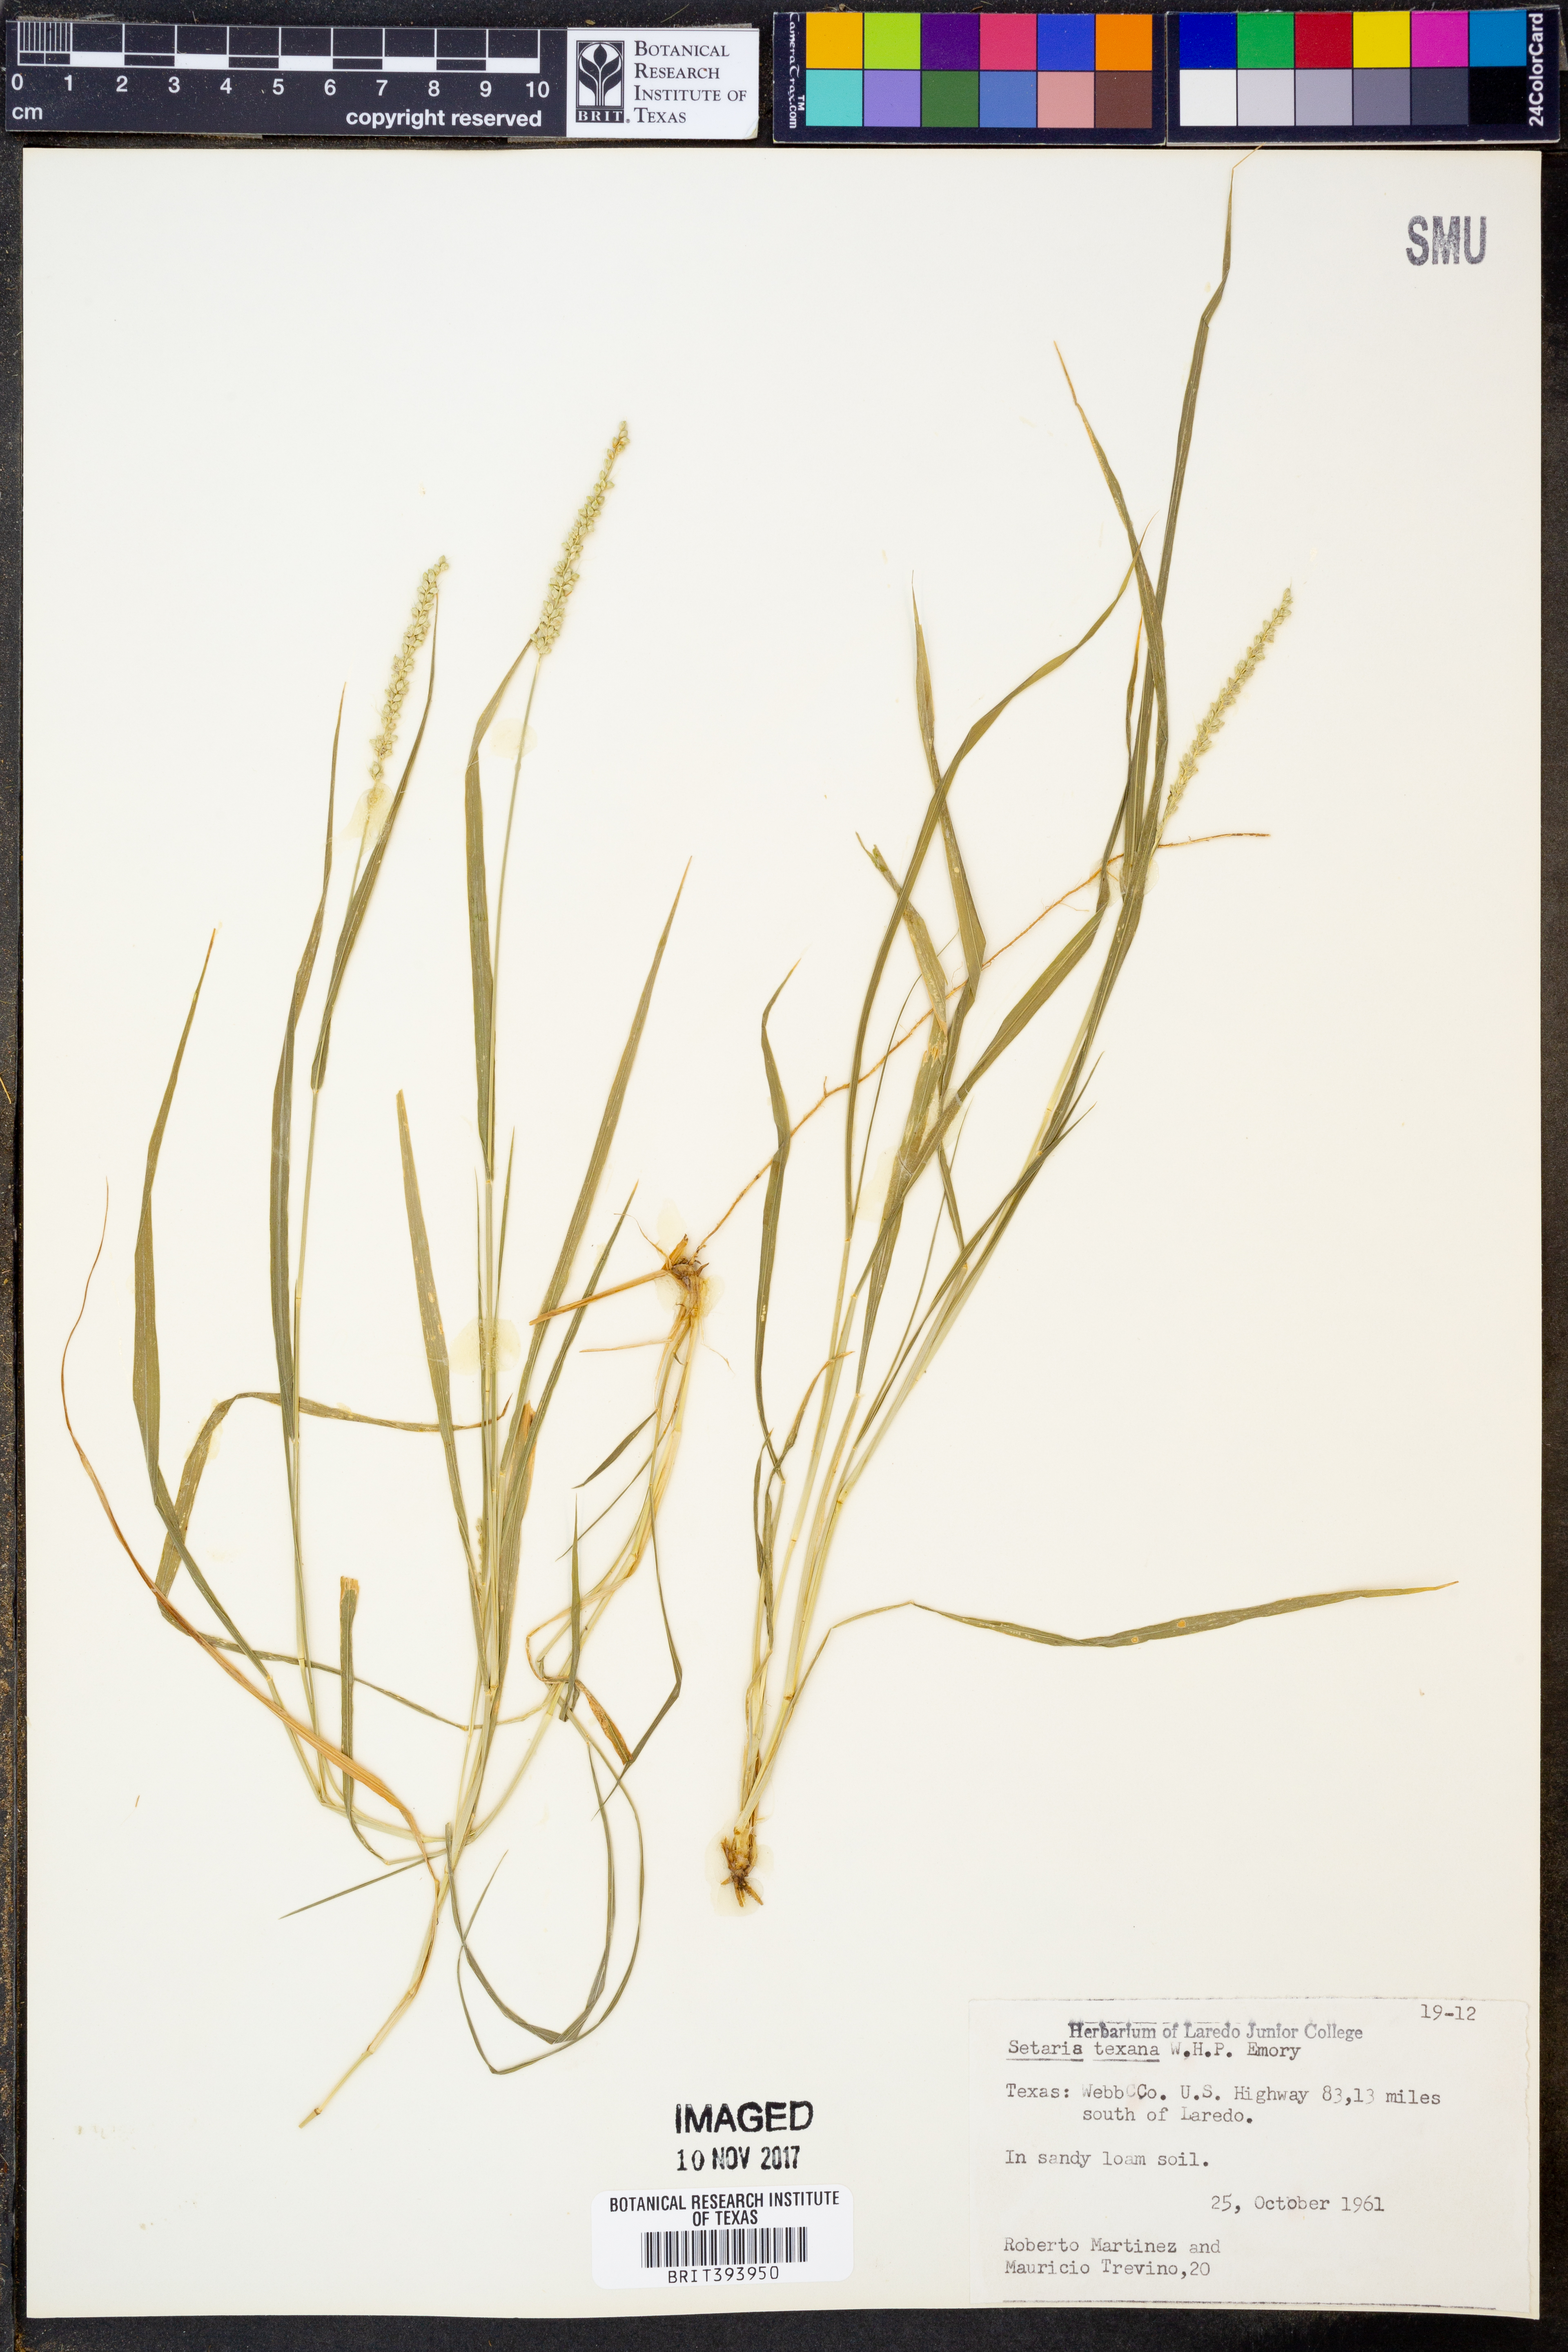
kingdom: Plantae
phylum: Tracheophyta
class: Liliopsida
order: Poales
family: Poaceae
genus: Setaria
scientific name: Setaria texana
